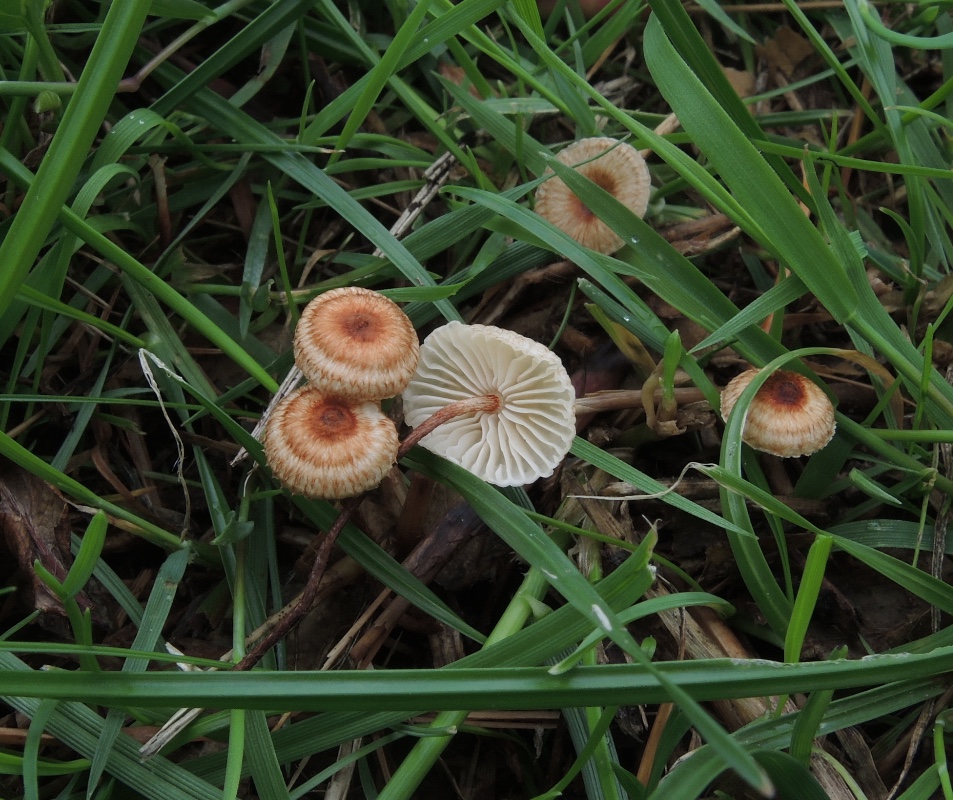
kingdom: Fungi
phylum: Basidiomycota
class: Agaricomycetes
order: Agaricales
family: Marasmiaceae
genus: Crinipellis
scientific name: Crinipellis scabella
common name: børstefod
